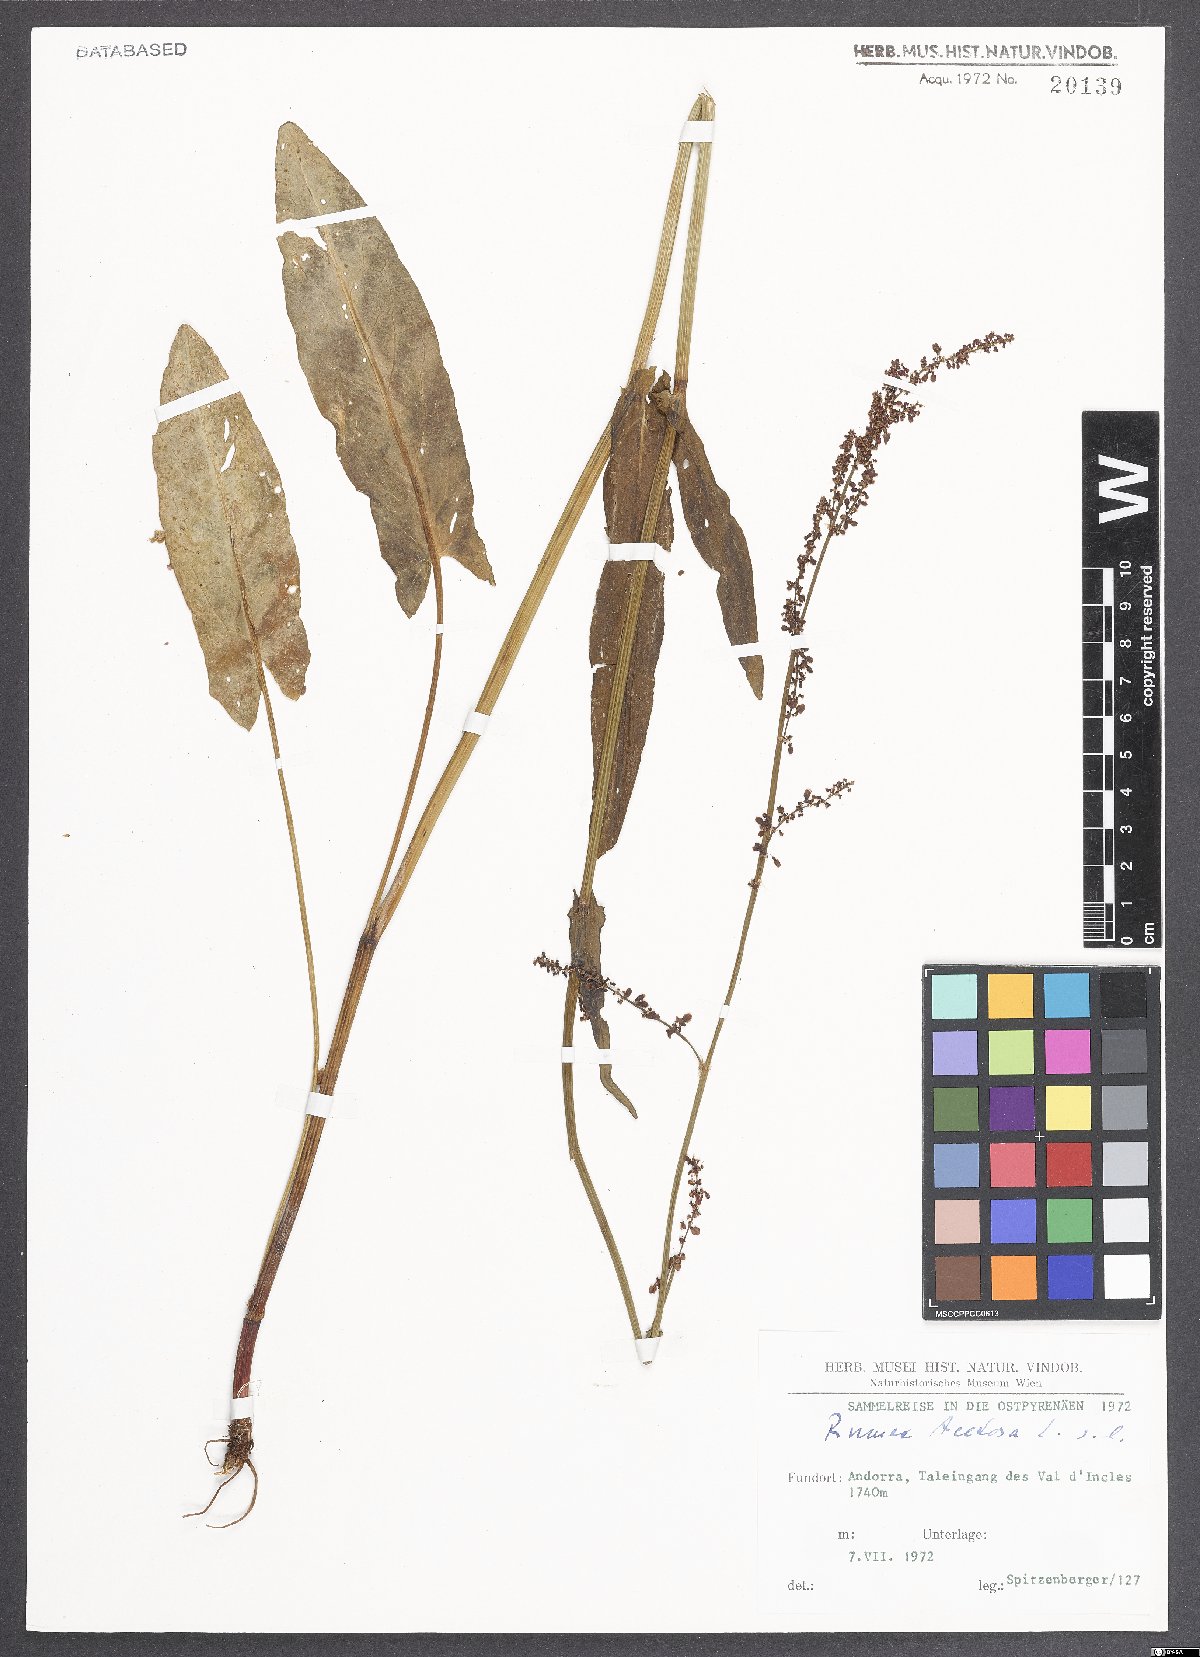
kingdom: Plantae
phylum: Tracheophyta
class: Magnoliopsida
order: Caryophyllales
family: Polygonaceae
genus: Rumex
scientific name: Rumex acetosa
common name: Garden sorrel
